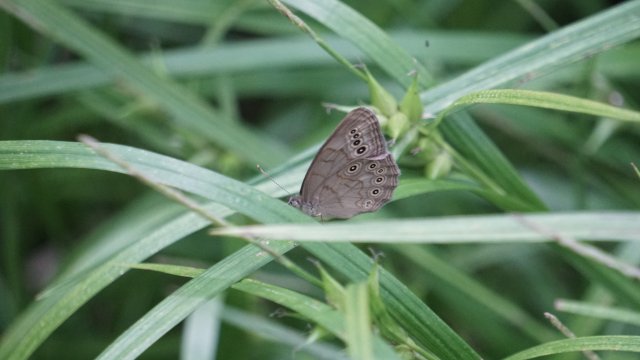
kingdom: Animalia
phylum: Arthropoda
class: Insecta
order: Lepidoptera
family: Nymphalidae
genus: Lethe
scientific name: Lethe eurydice
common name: Eyed Brown
